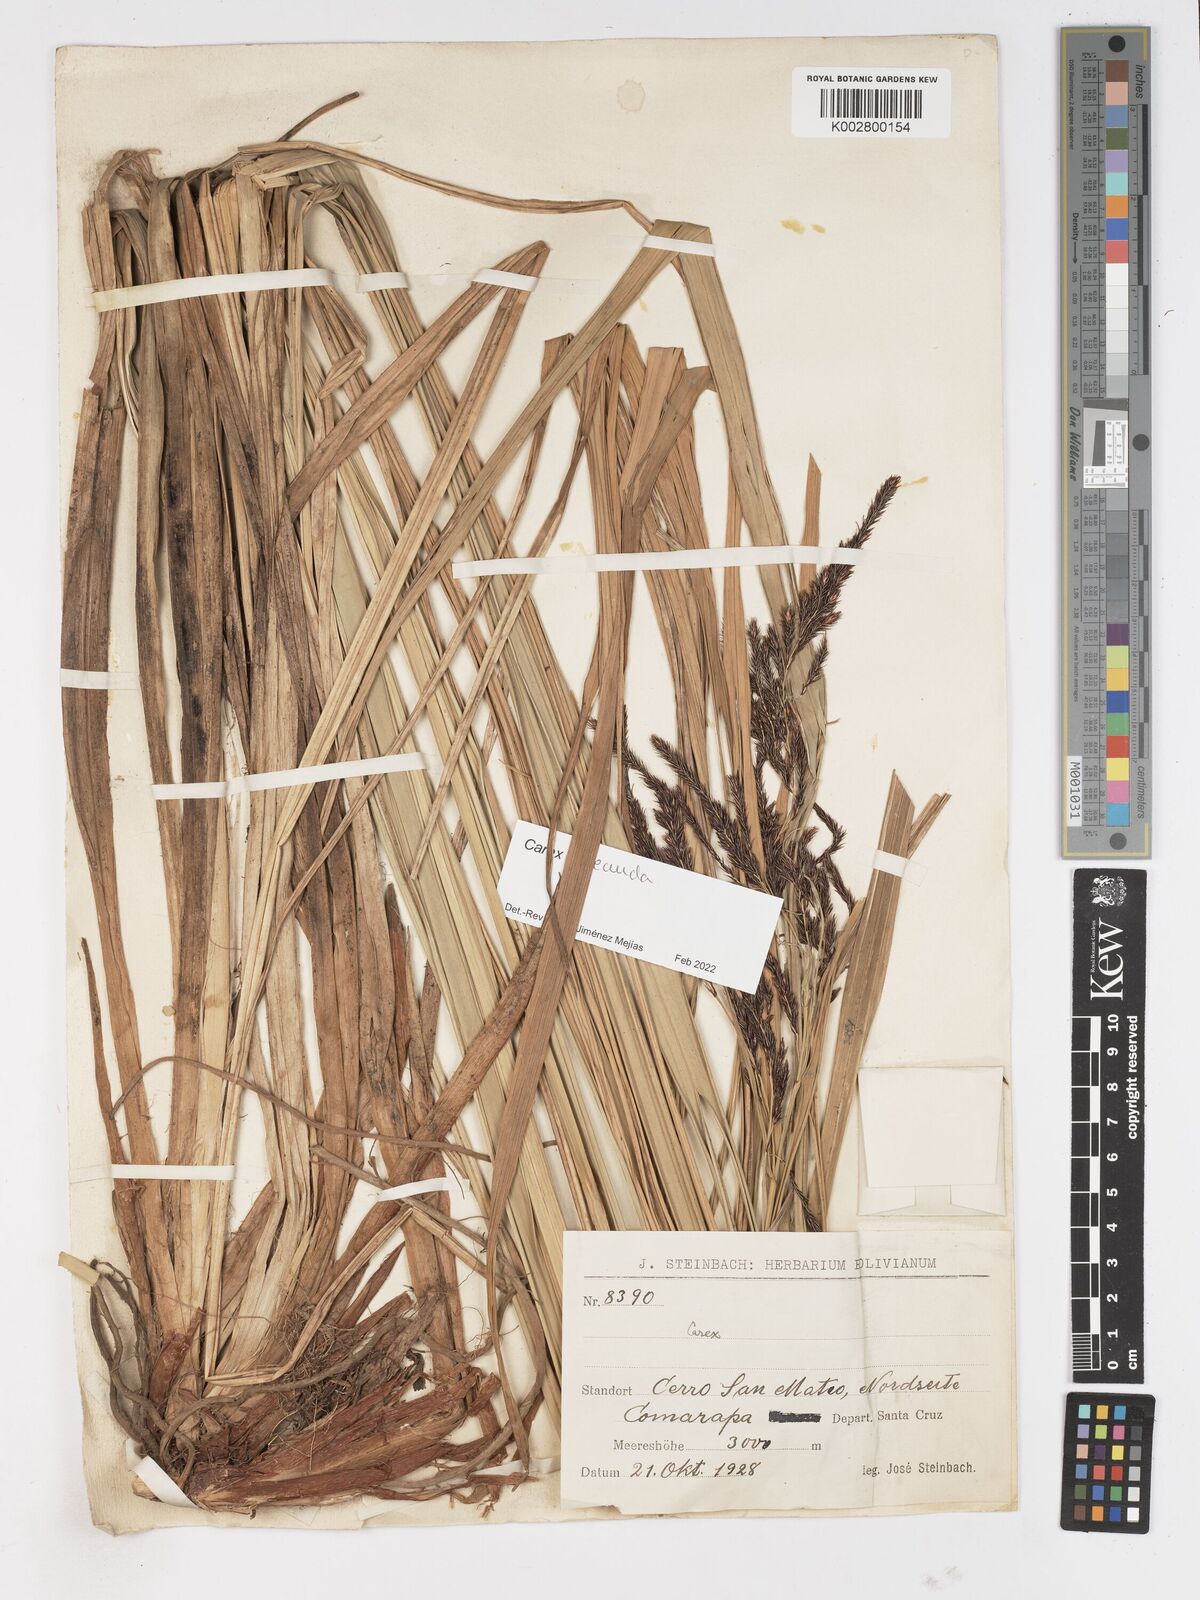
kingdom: Plantae
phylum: Tracheophyta
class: Liliopsida
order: Poales
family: Cyperaceae
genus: Carex
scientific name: Carex jamesonii
